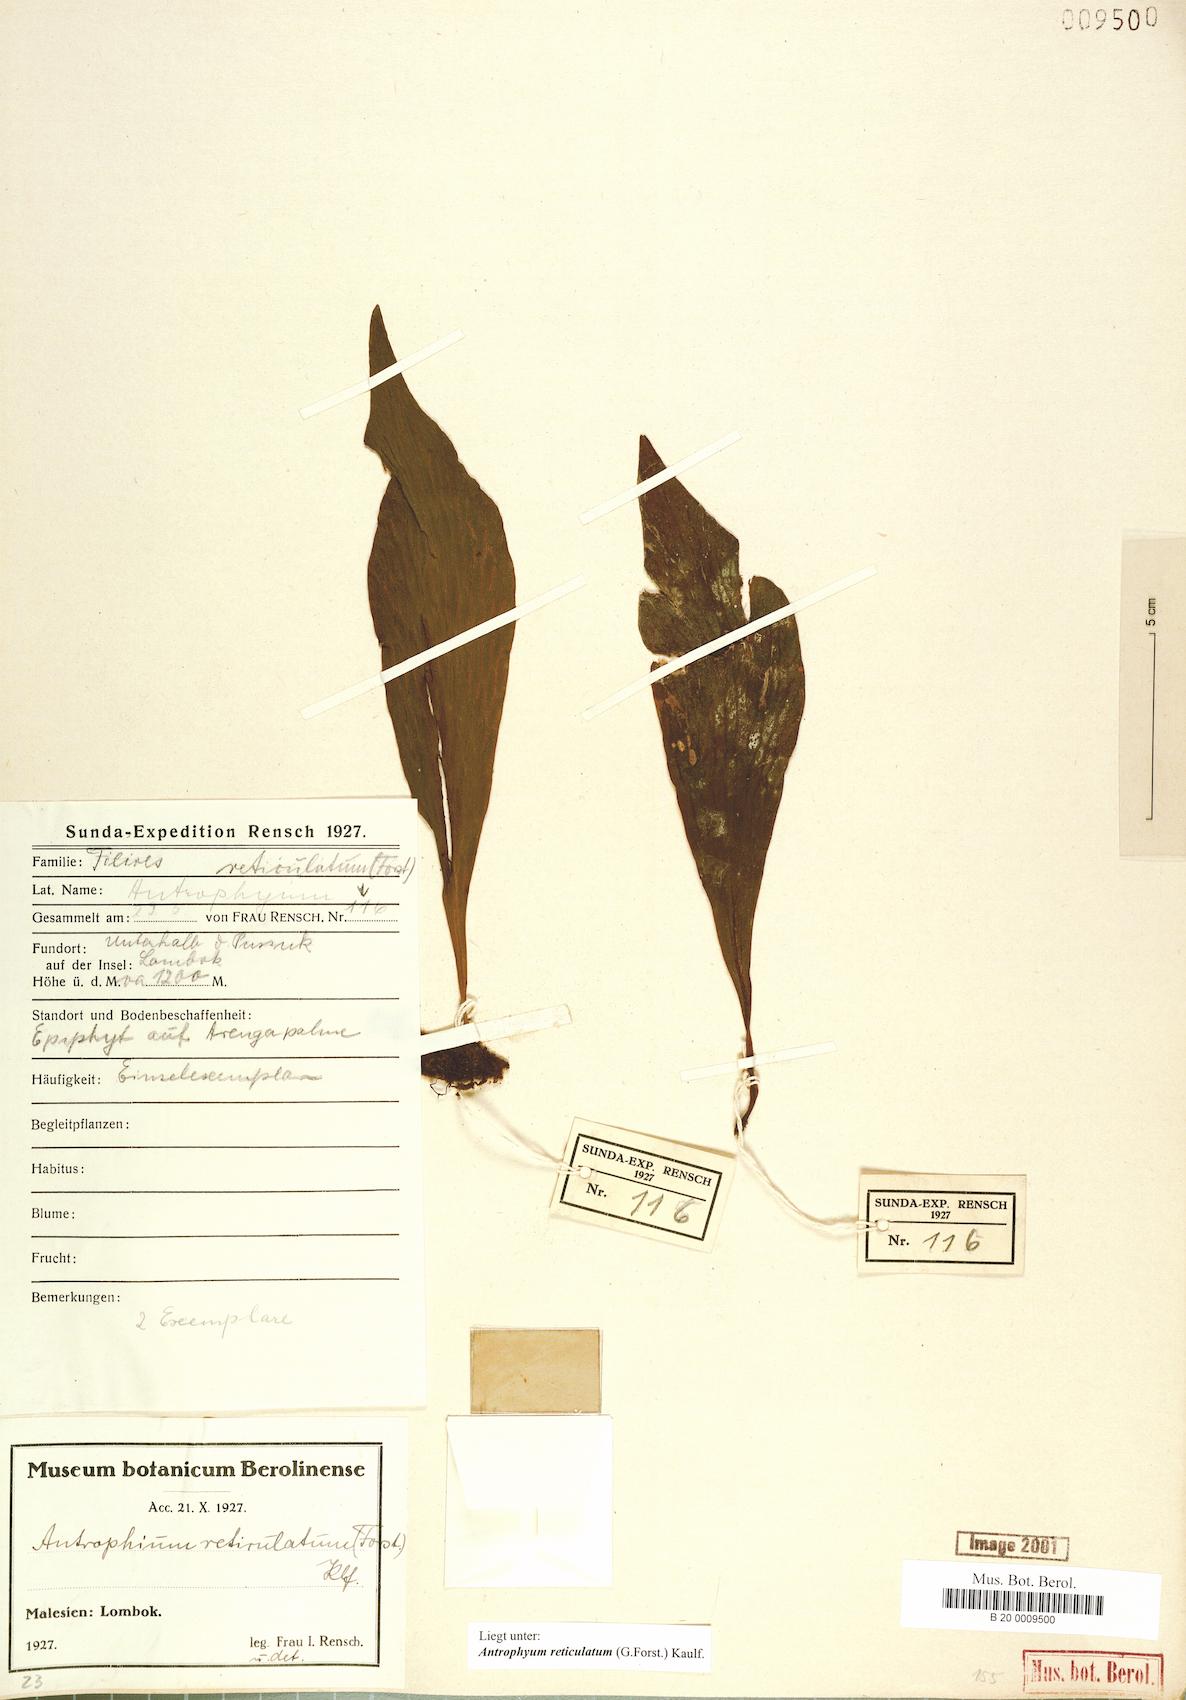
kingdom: Plantae
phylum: Tracheophyta
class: Polypodiopsida
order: Polypodiales
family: Pteridaceae
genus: Antrophyum
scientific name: Antrophyum reticulatum
